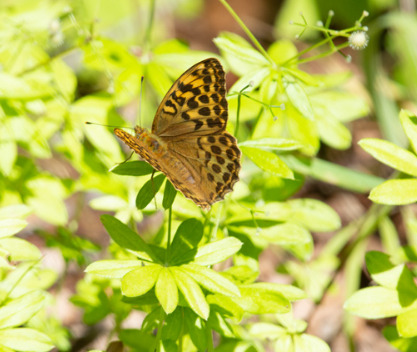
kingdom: Animalia
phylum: Arthropoda
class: Insecta
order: Lepidoptera
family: Nymphalidae
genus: Argynnis
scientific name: Argynnis paphia
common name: Kejserkåbe
